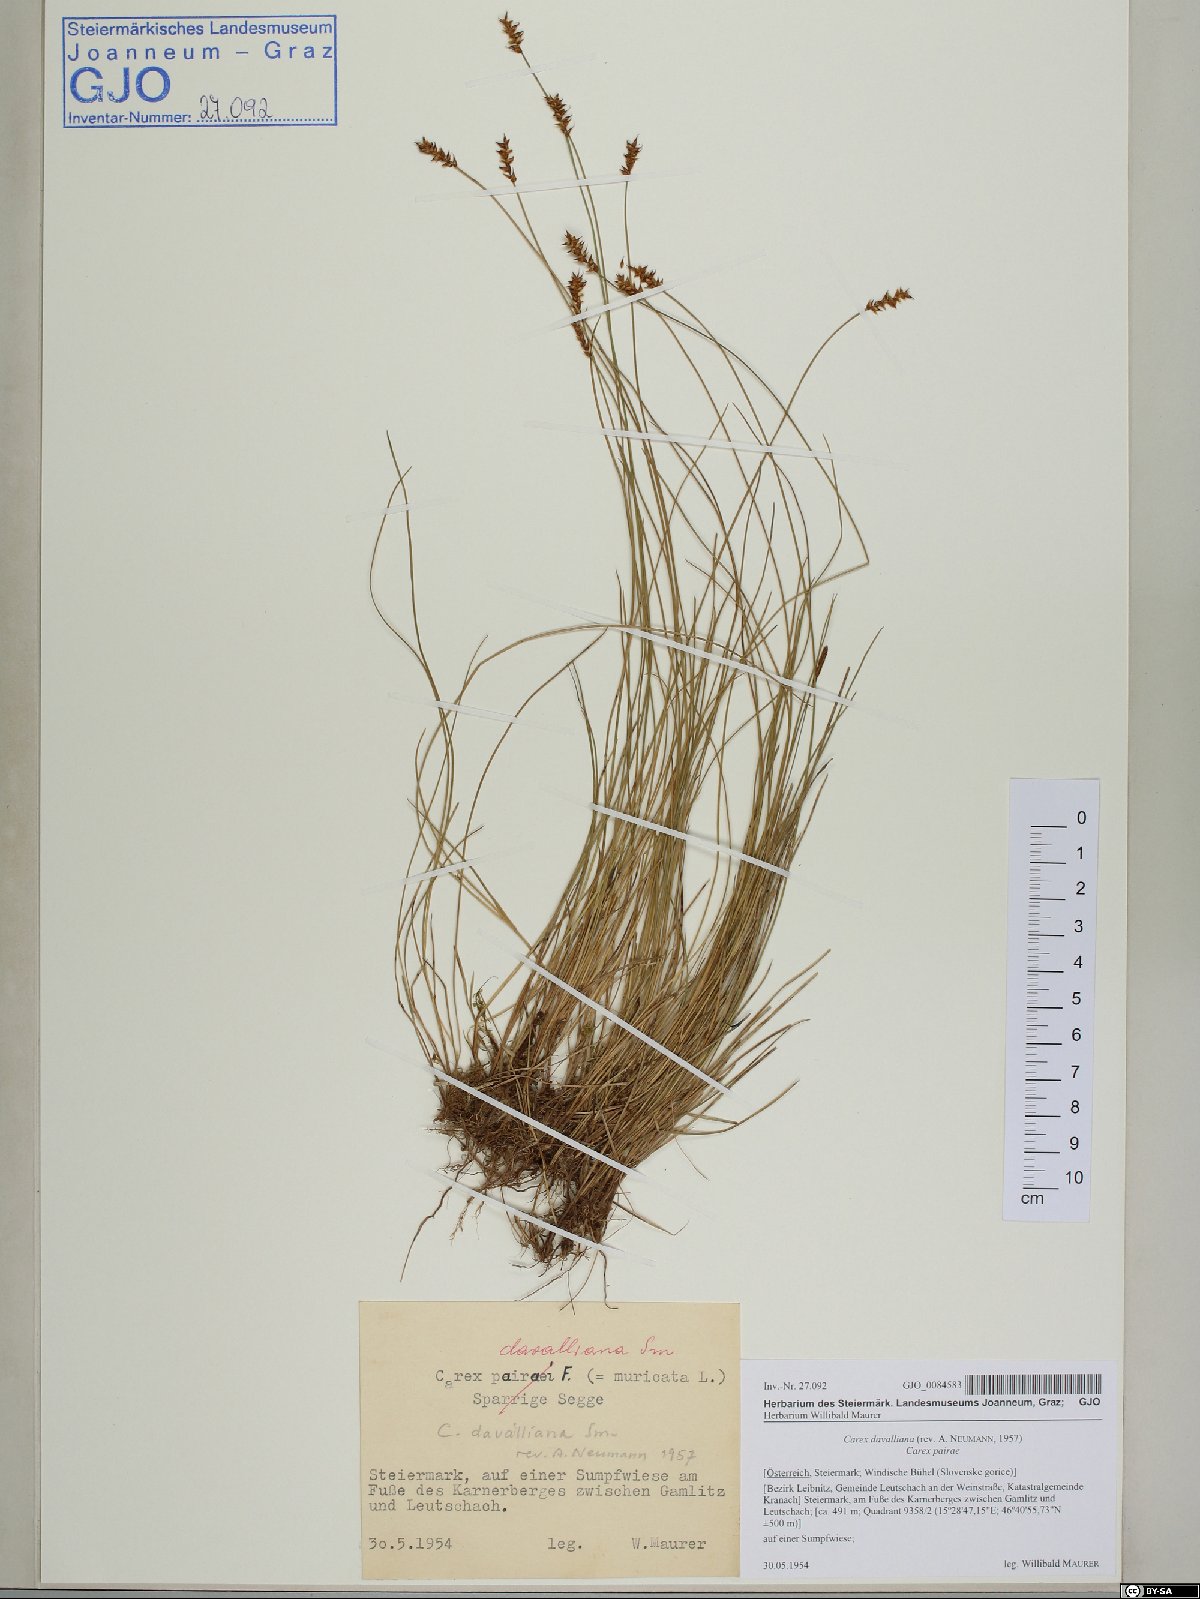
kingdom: Plantae
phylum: Tracheophyta
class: Liliopsida
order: Poales
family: Cyperaceae
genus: Carex
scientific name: Carex davalliana
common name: Davall's sedge
